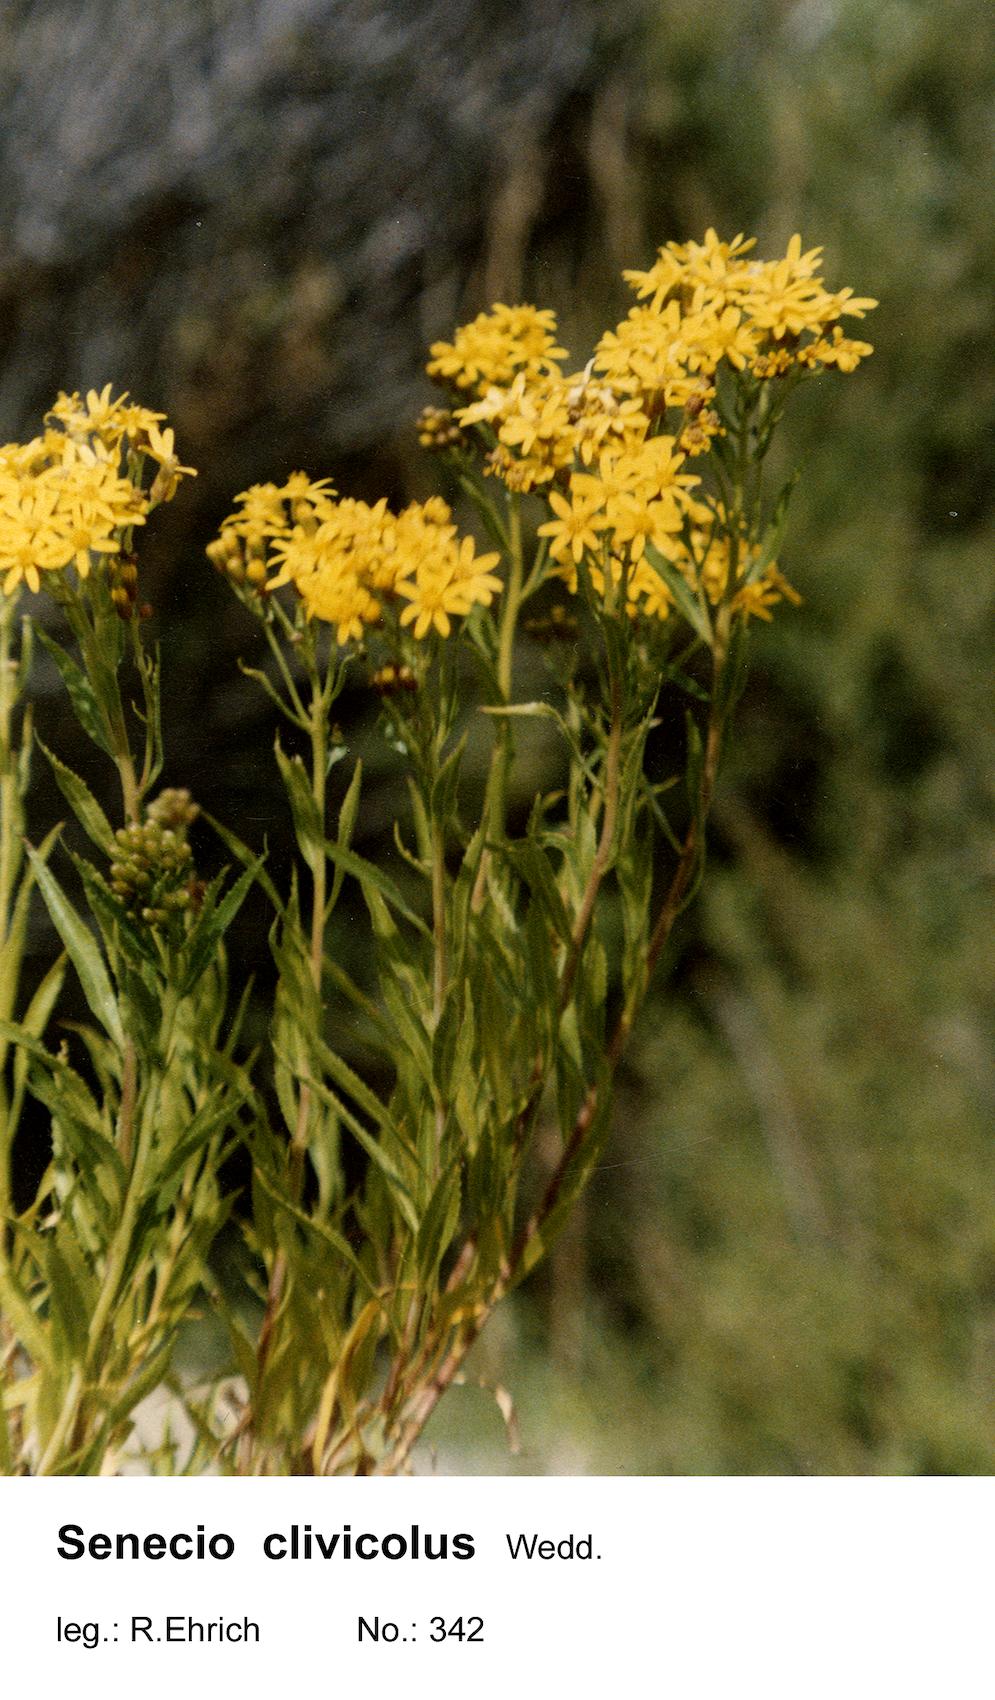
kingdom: Plantae
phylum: Tracheophyta
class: Magnoliopsida
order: Asterales
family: Asteraceae
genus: Senecio
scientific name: Senecio clivicola
